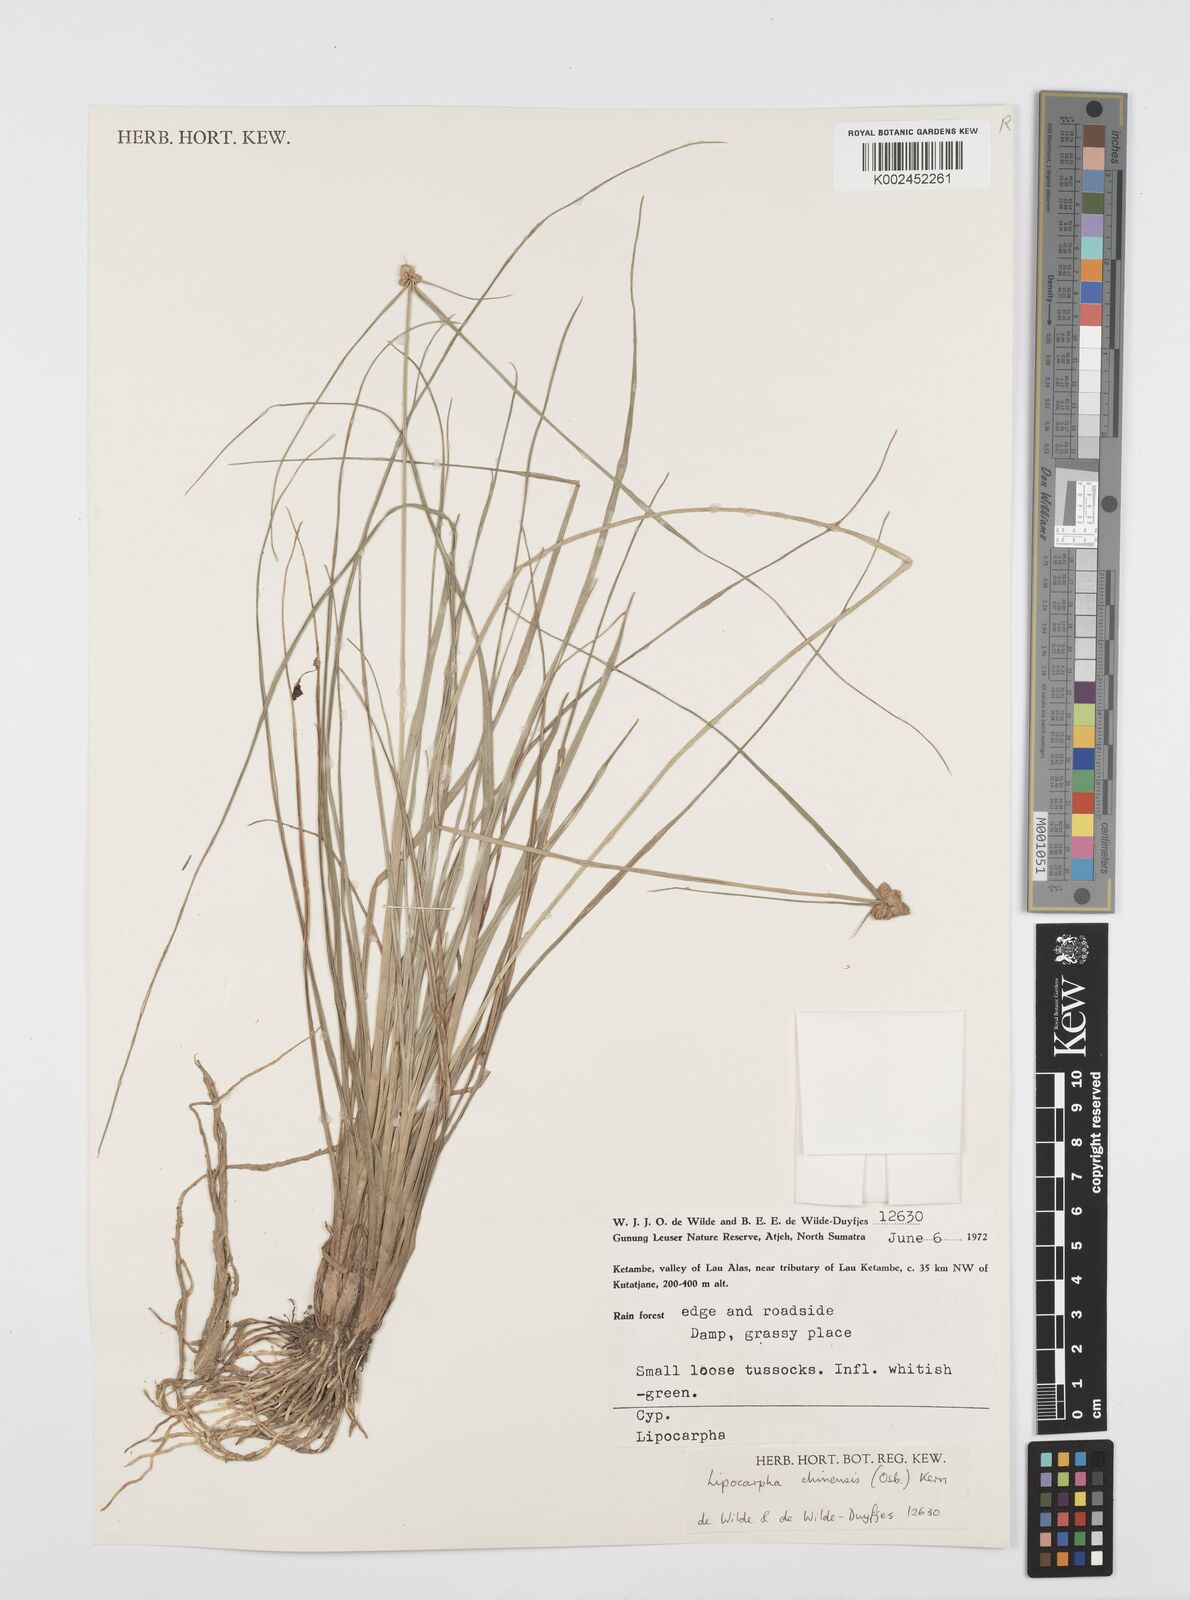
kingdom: Plantae
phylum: Tracheophyta
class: Liliopsida
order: Poales
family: Cyperaceae
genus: Cyperus
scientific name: Cyperus
